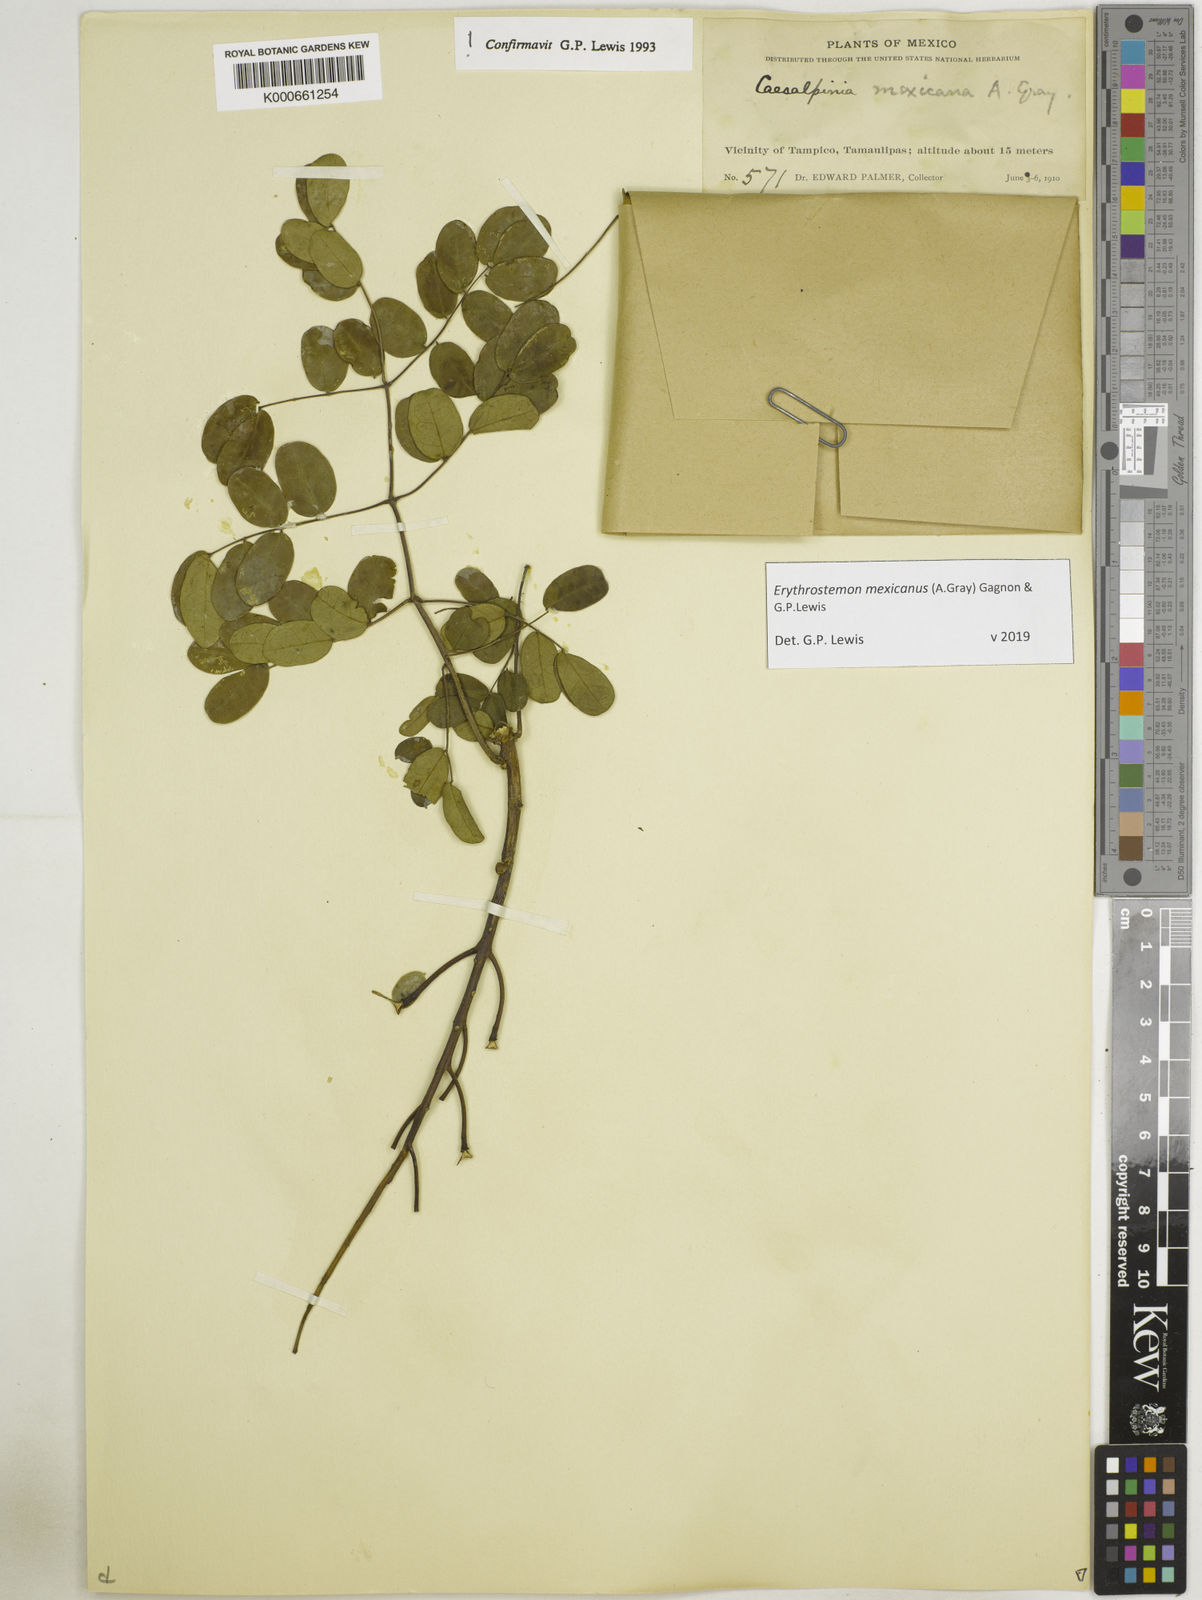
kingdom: Plantae
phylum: Tracheophyta
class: Magnoliopsida
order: Fabales
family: Fabaceae
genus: Erythrostemon
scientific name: Erythrostemon mexicanus
